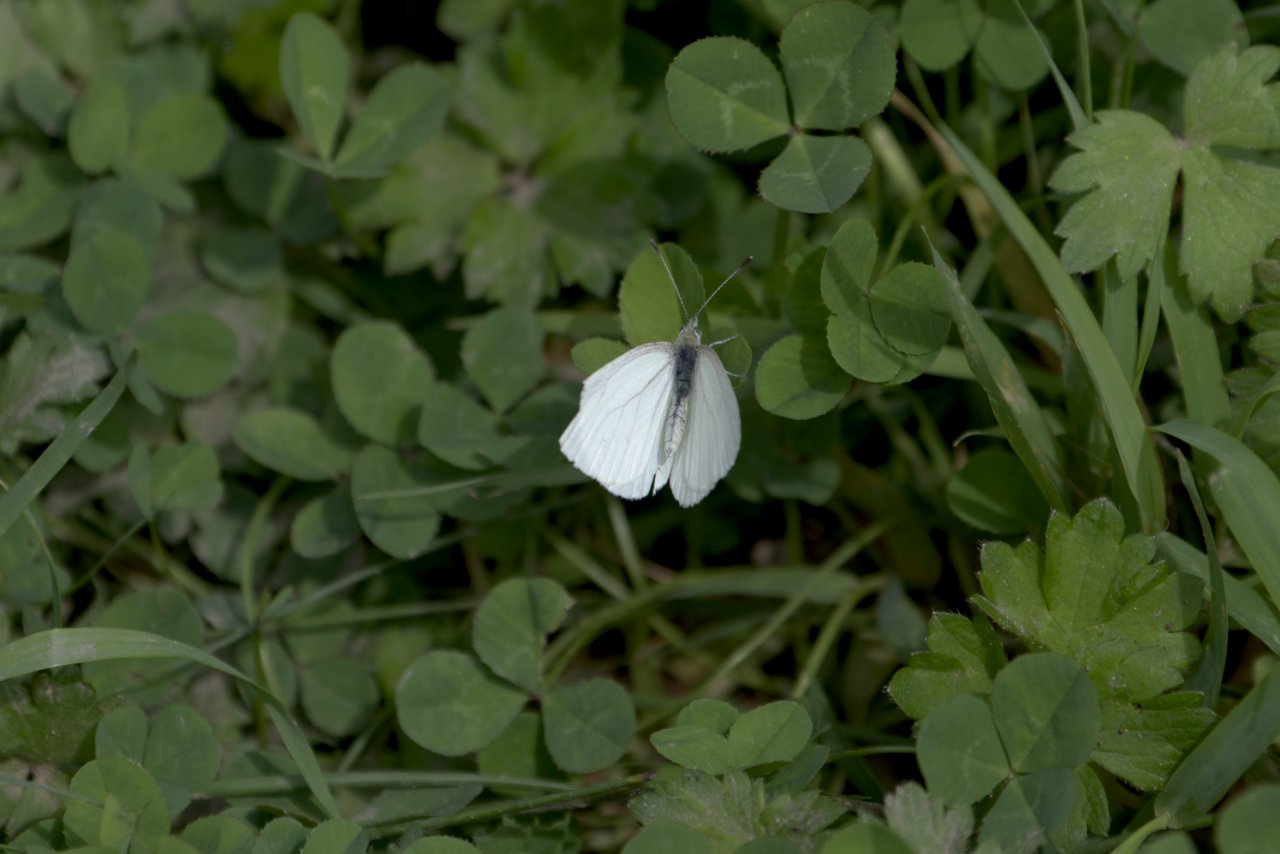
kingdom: Animalia
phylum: Arthropoda
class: Insecta
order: Lepidoptera
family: Pieridae
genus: Pieris
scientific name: Pieris marginalis
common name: Margined White
